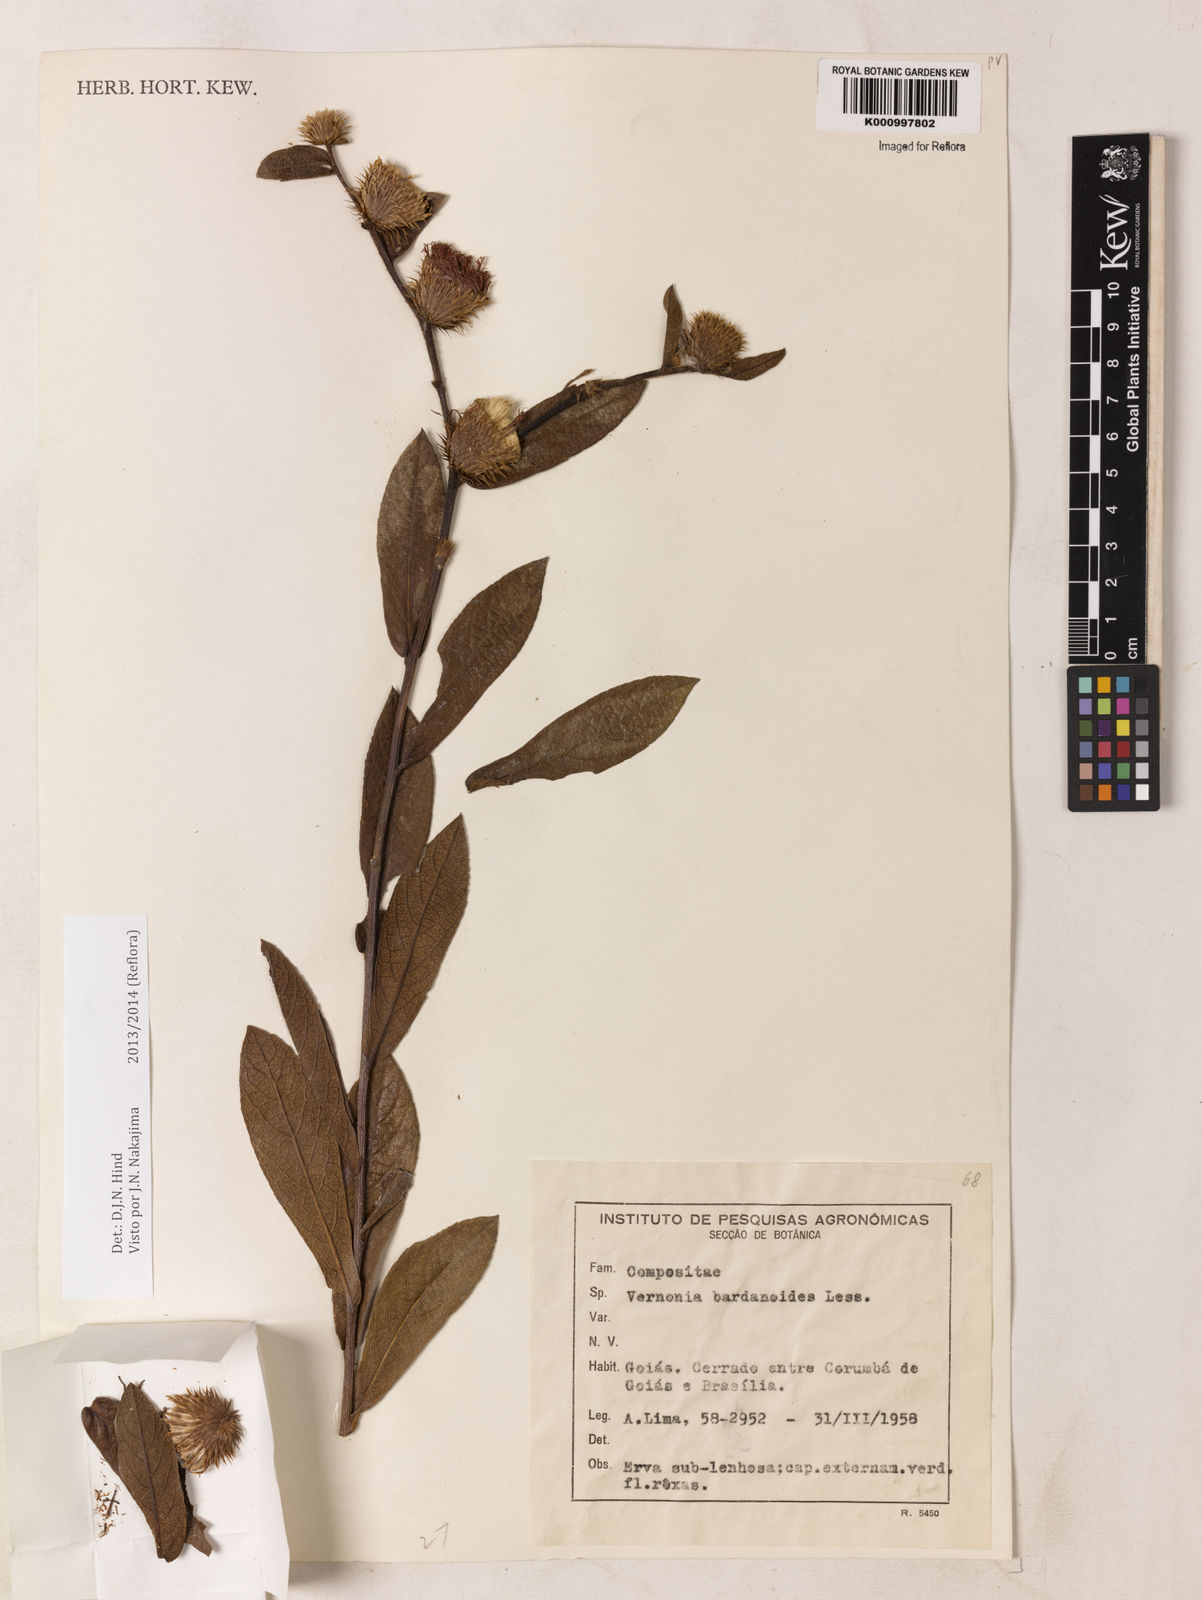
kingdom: Plantae
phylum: Tracheophyta
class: Magnoliopsida
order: Asterales
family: Asteraceae
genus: Lessingianthus
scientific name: Lessingianthus bardanioides
